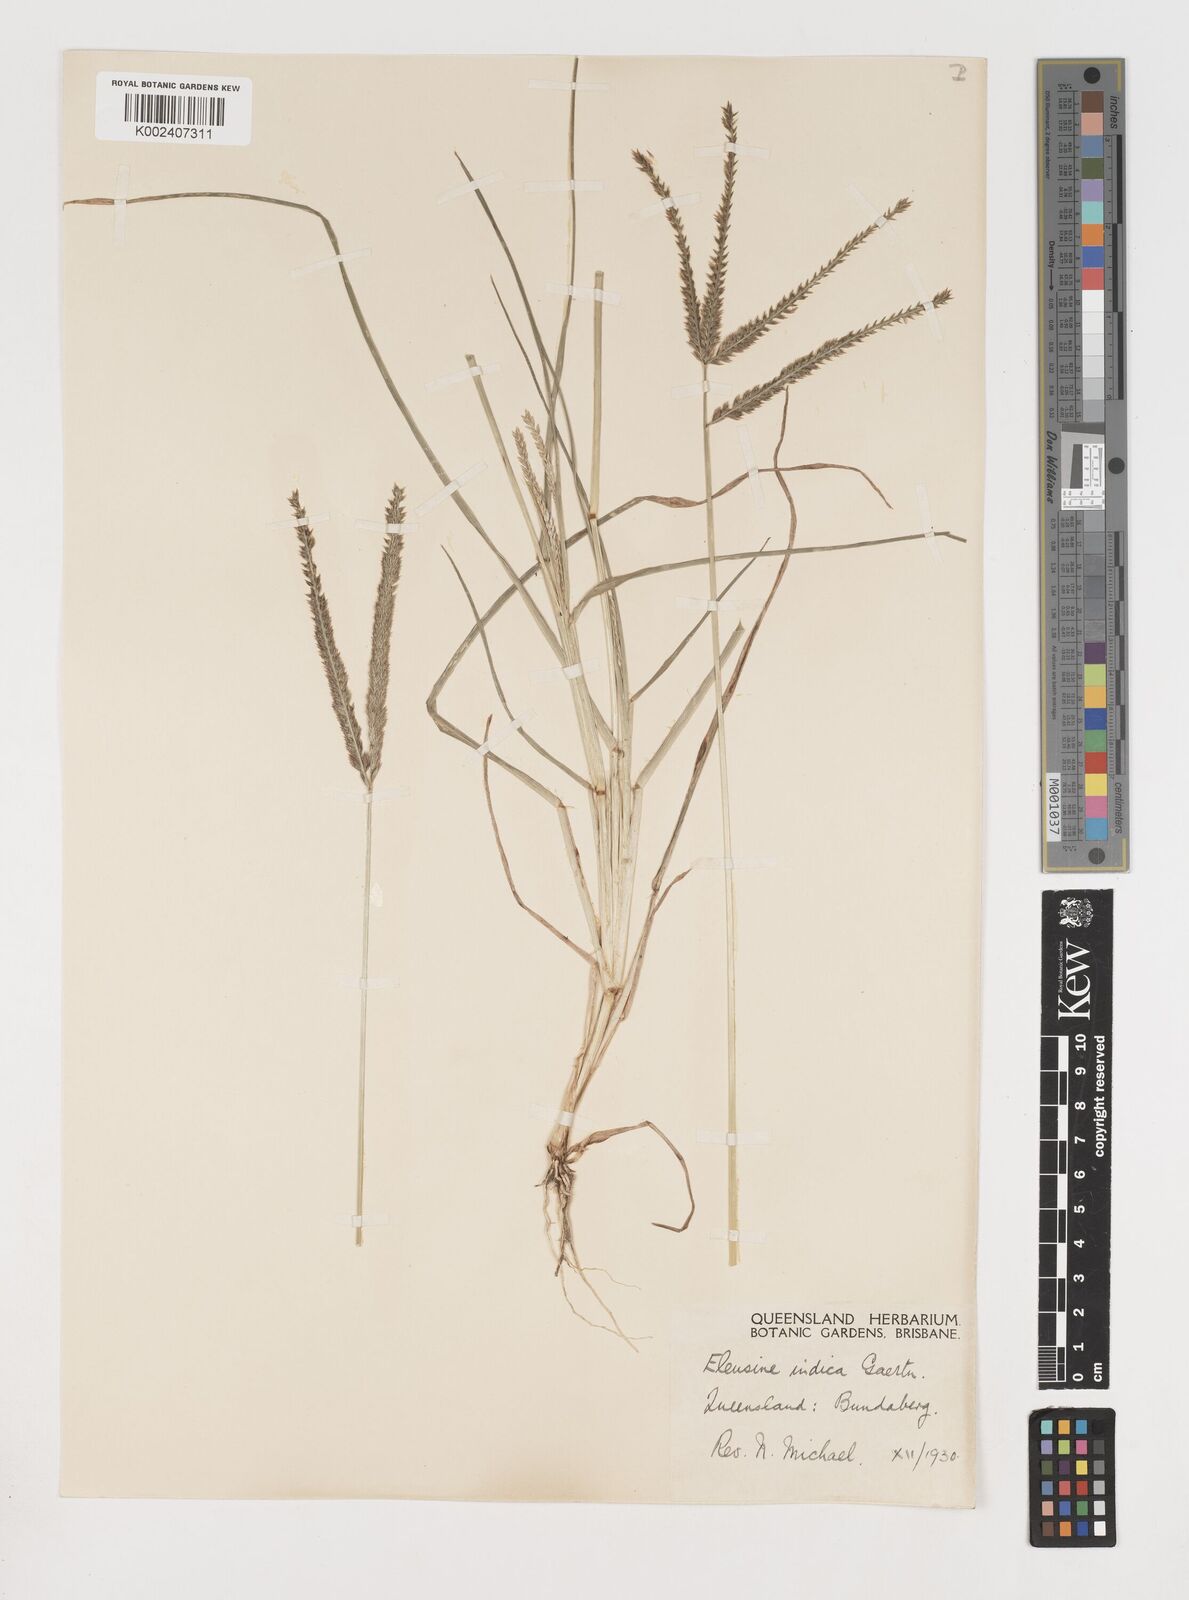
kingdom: Plantae
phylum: Tracheophyta
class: Liliopsida
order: Poales
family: Poaceae
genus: Eleusine
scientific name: Eleusine indica
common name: Yard-grass
